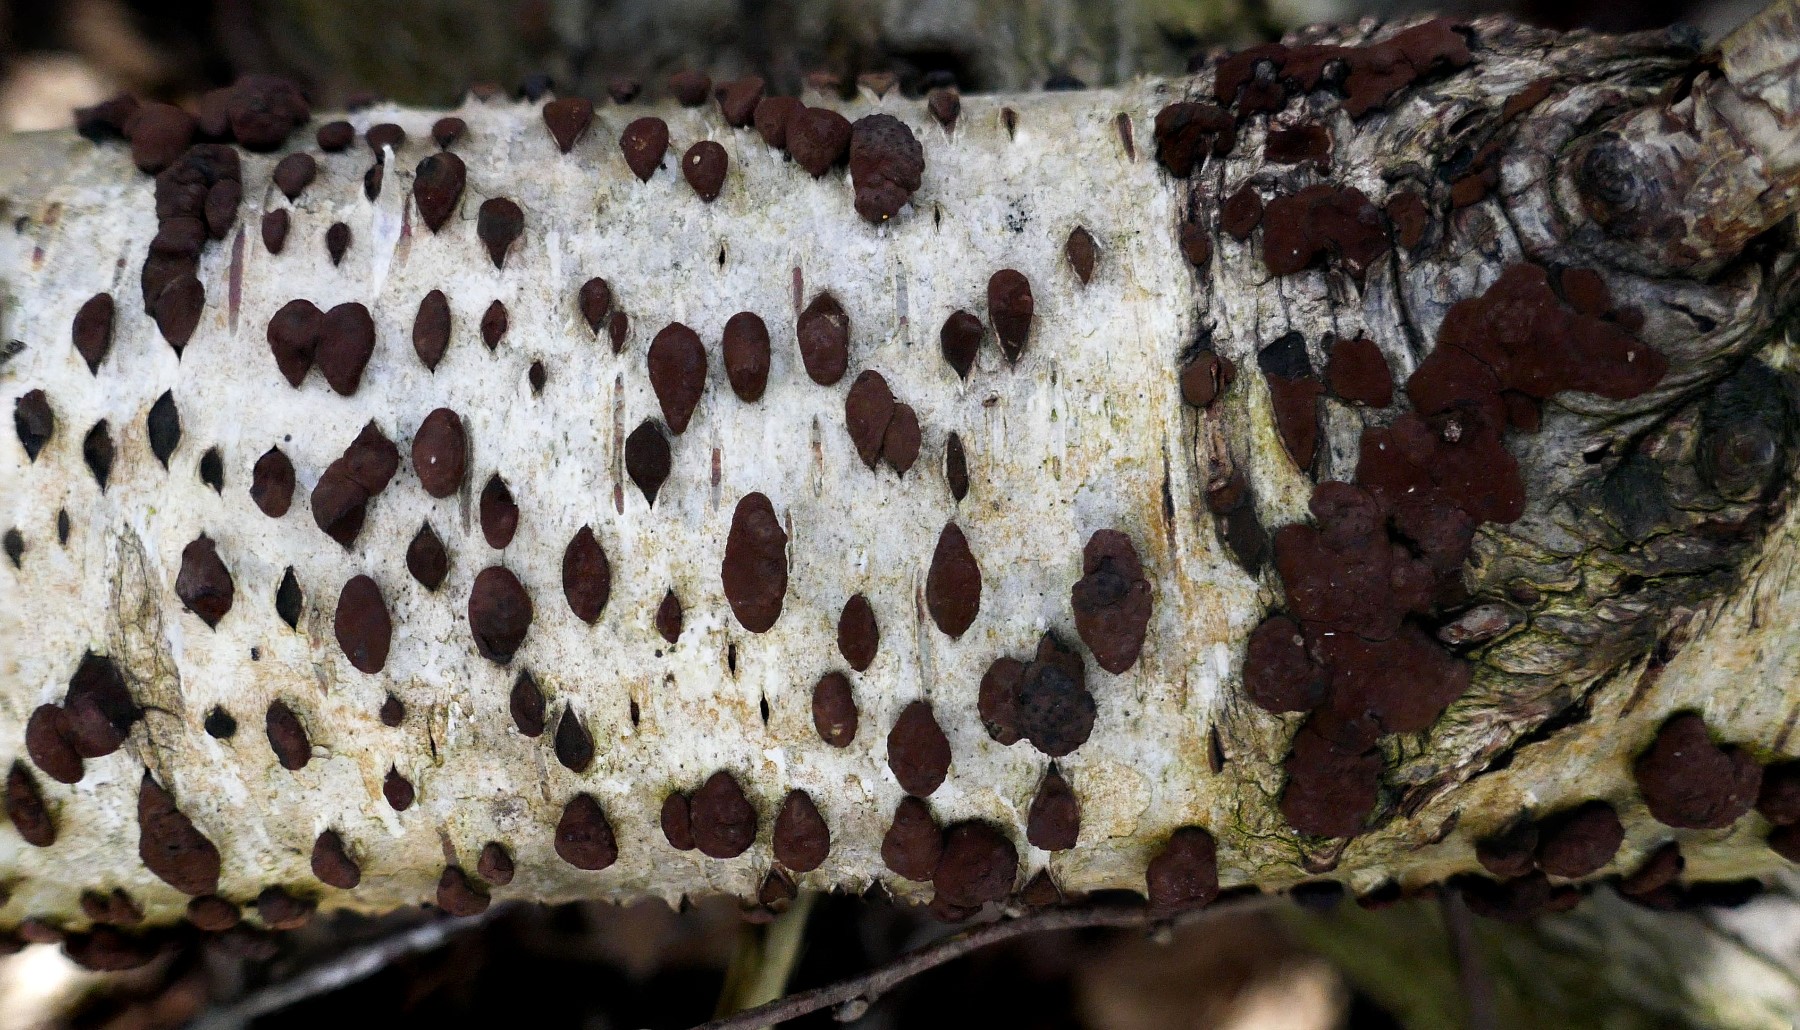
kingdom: Fungi
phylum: Ascomycota
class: Sordariomycetes
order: Xylariales
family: Hypoxylaceae
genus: Jackrogersella
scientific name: Jackrogersella multiformis
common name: foranderlig kulbær
